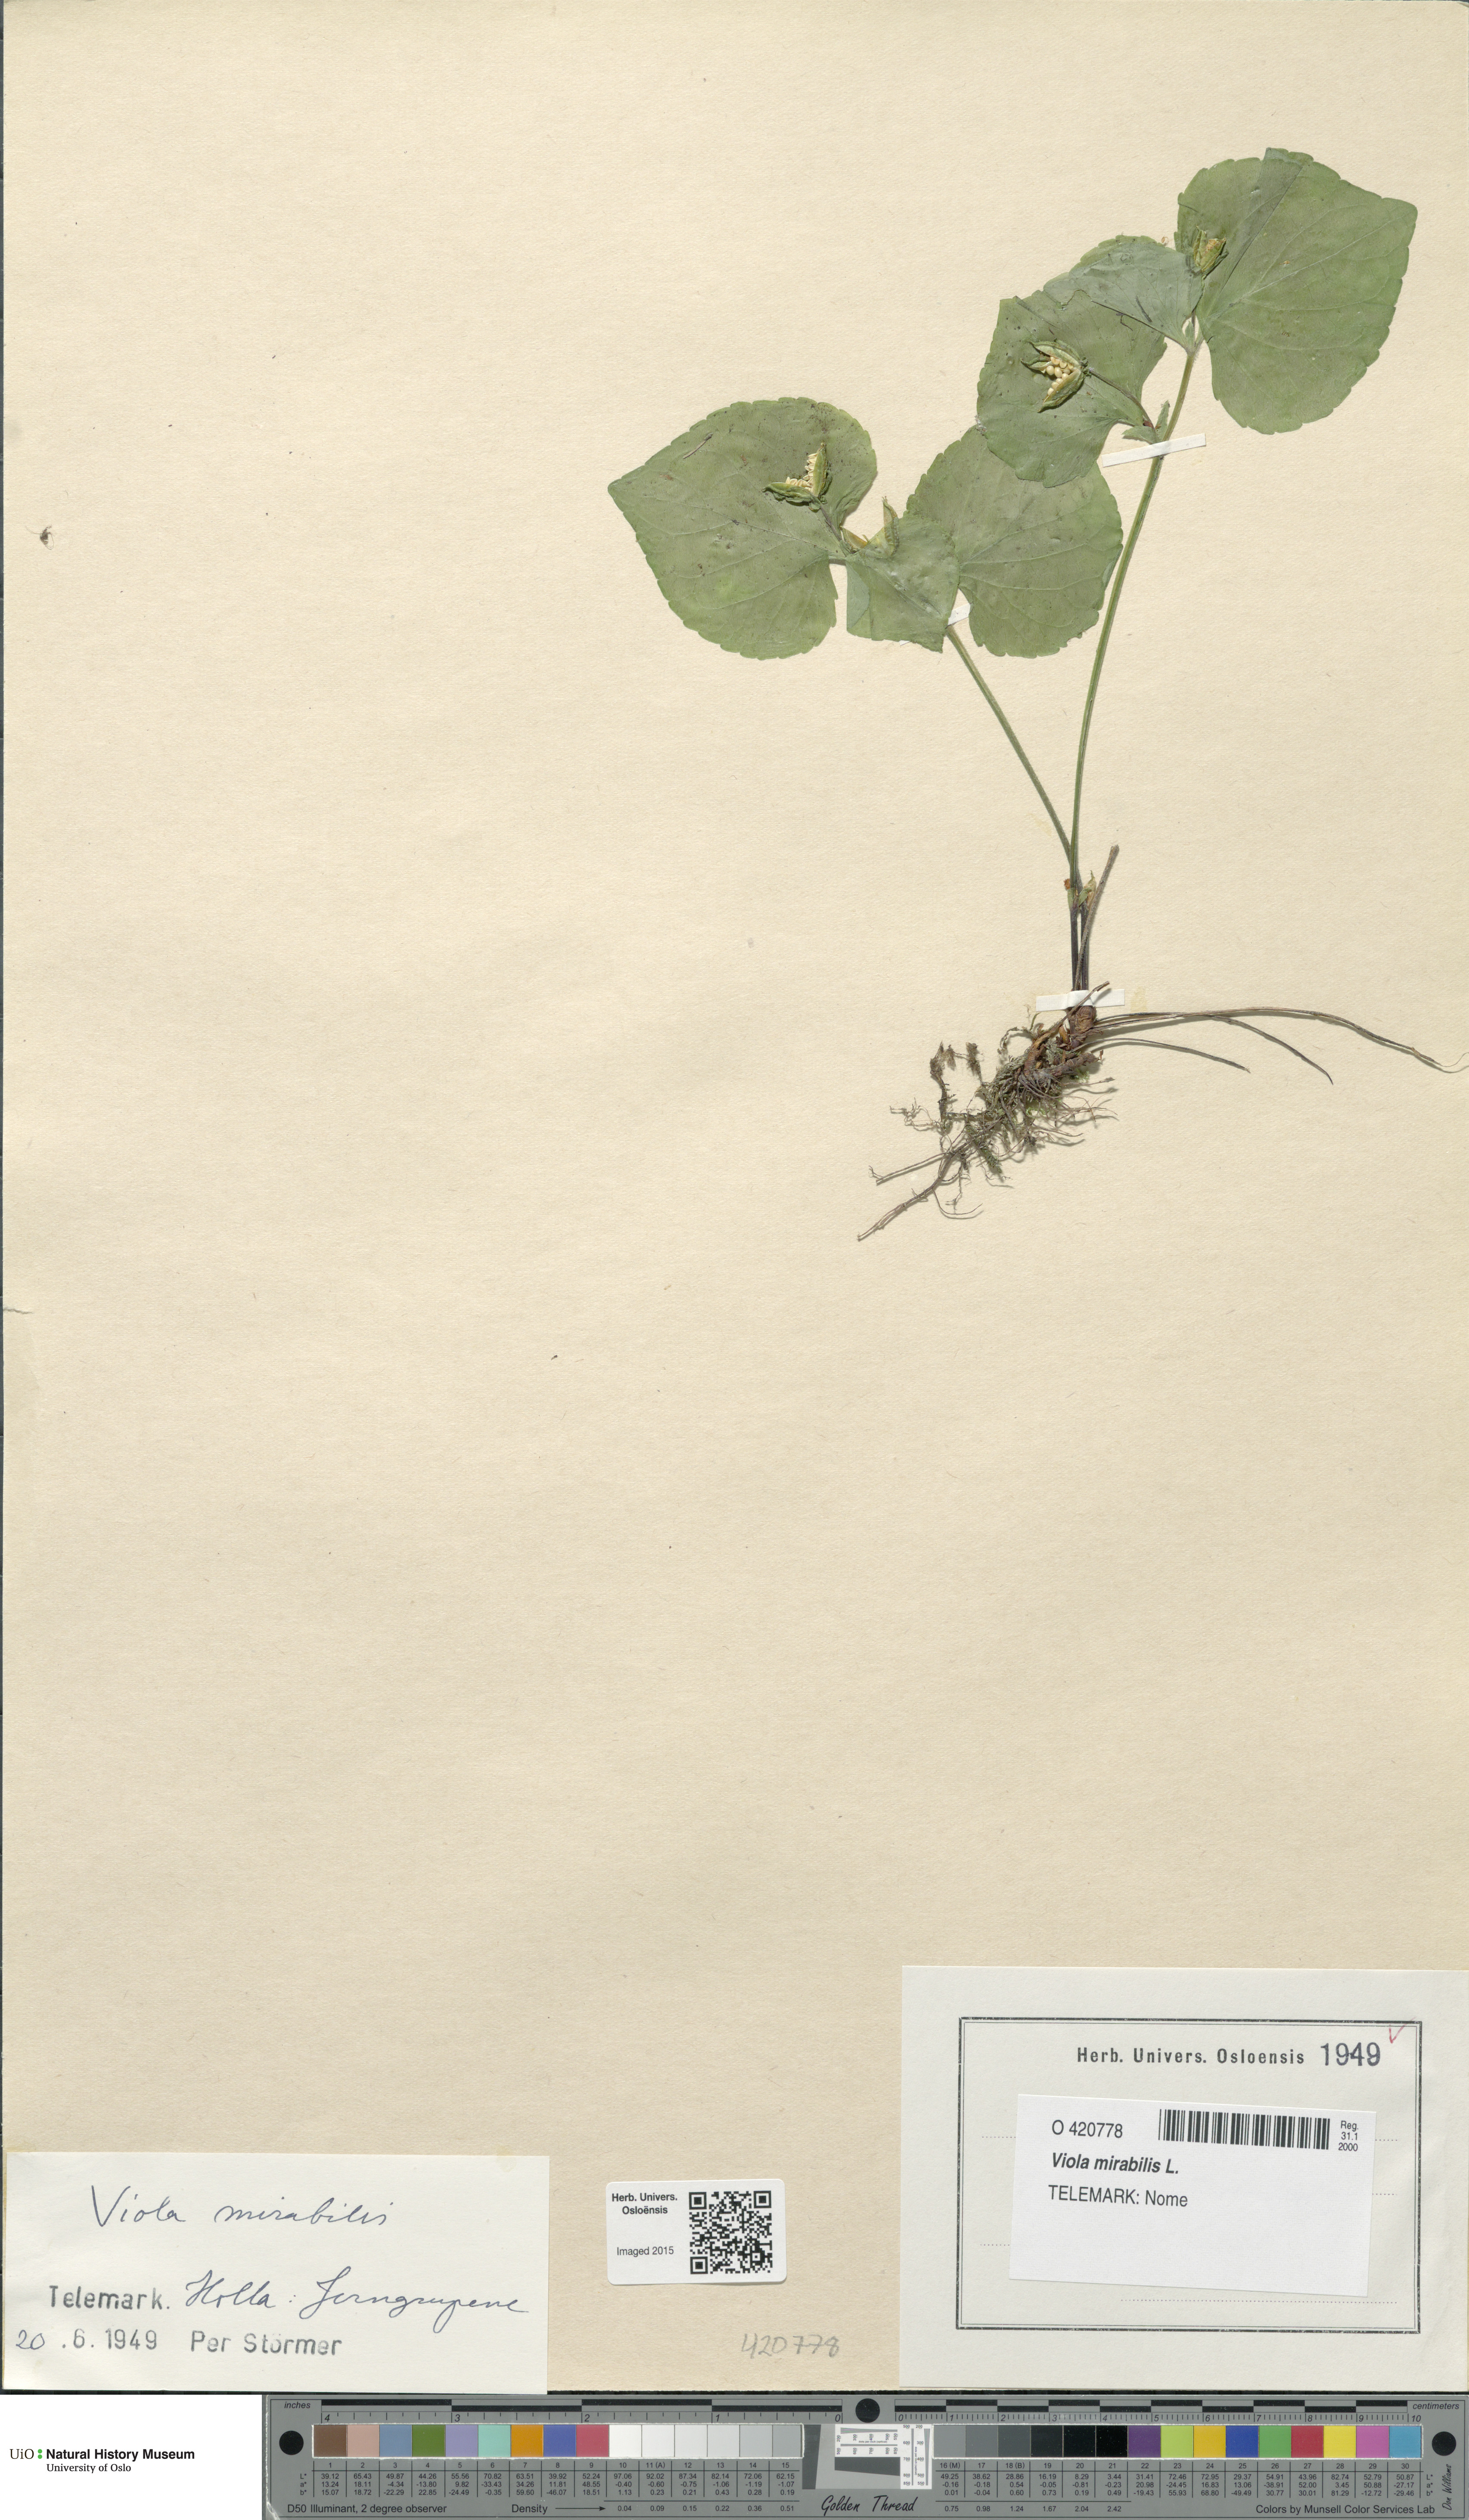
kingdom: Plantae
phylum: Tracheophyta
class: Magnoliopsida
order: Malpighiales
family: Violaceae
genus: Viola
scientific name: Viola mirabilis
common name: Wonder violet
